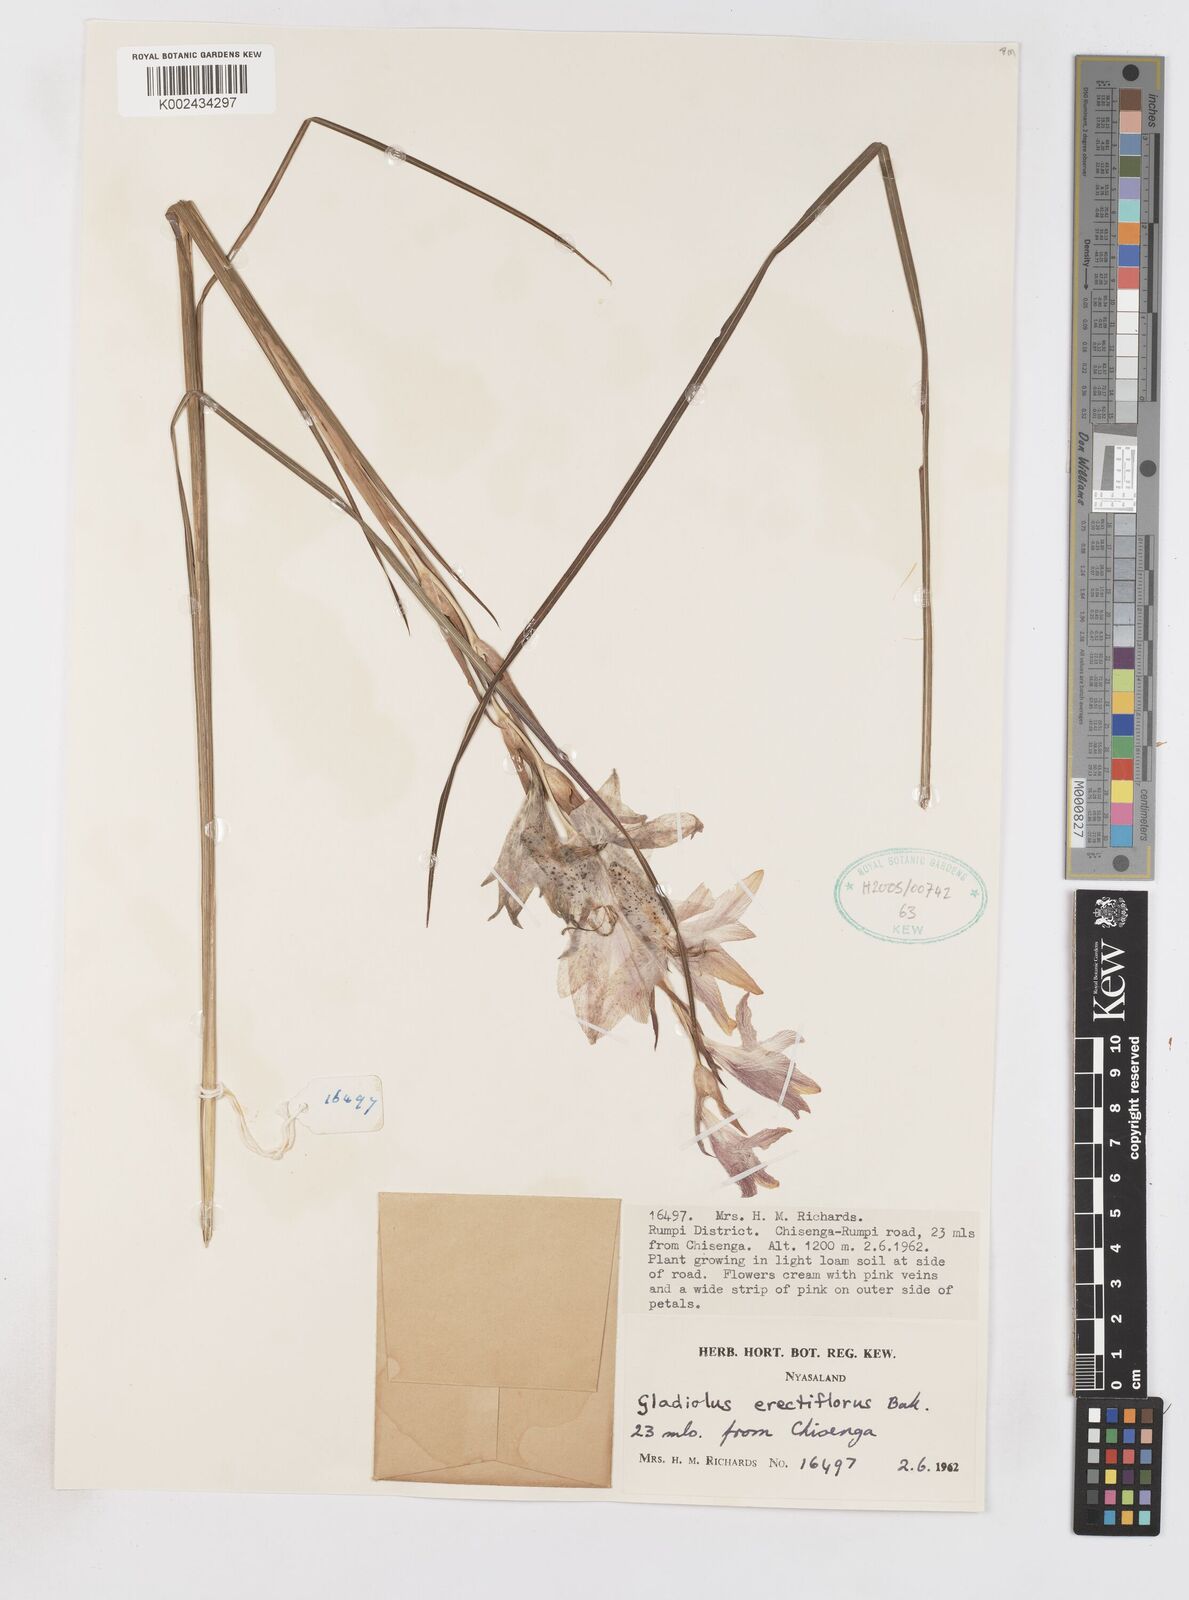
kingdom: Plantae
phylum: Tracheophyta
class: Liliopsida
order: Asparagales
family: Iridaceae
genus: Gladiolus
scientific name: Gladiolus erectiflorus
